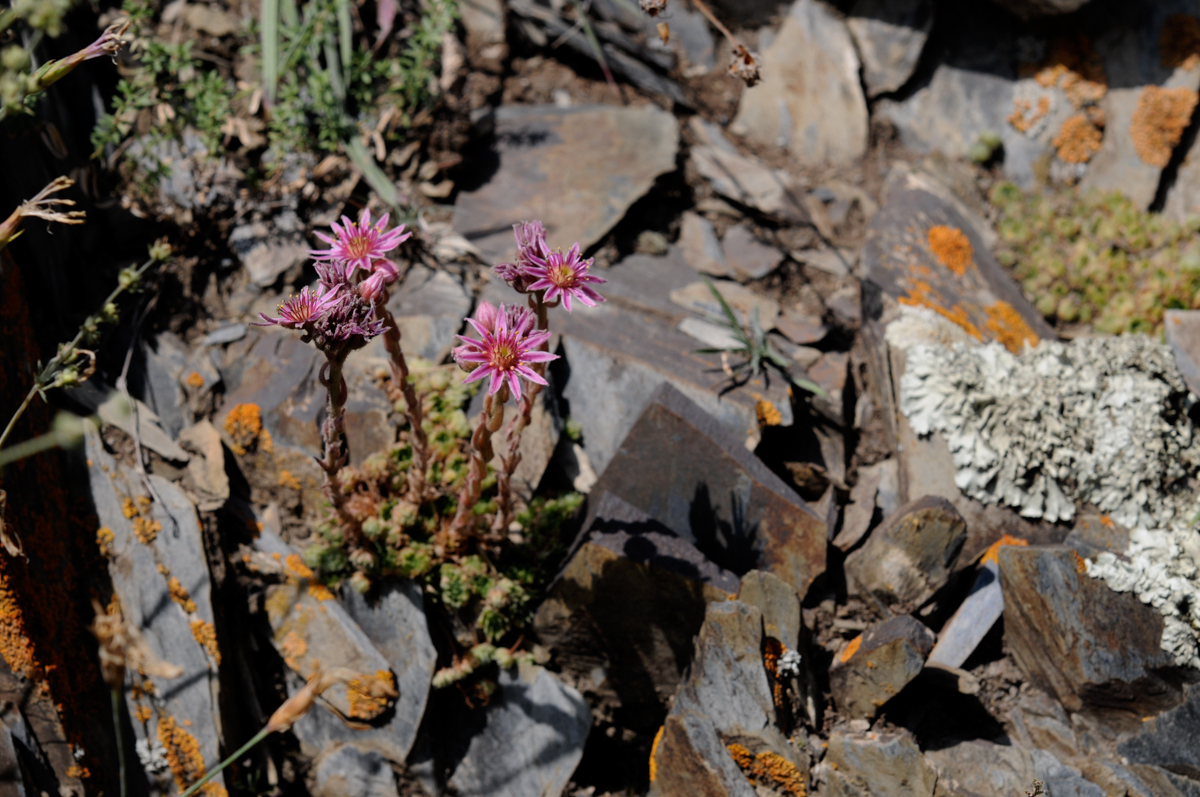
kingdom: Plantae
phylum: Tracheophyta
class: Magnoliopsida
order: Saxifragales
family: Crassulaceae
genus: Sempervivum
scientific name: Sempervivum pumilum
